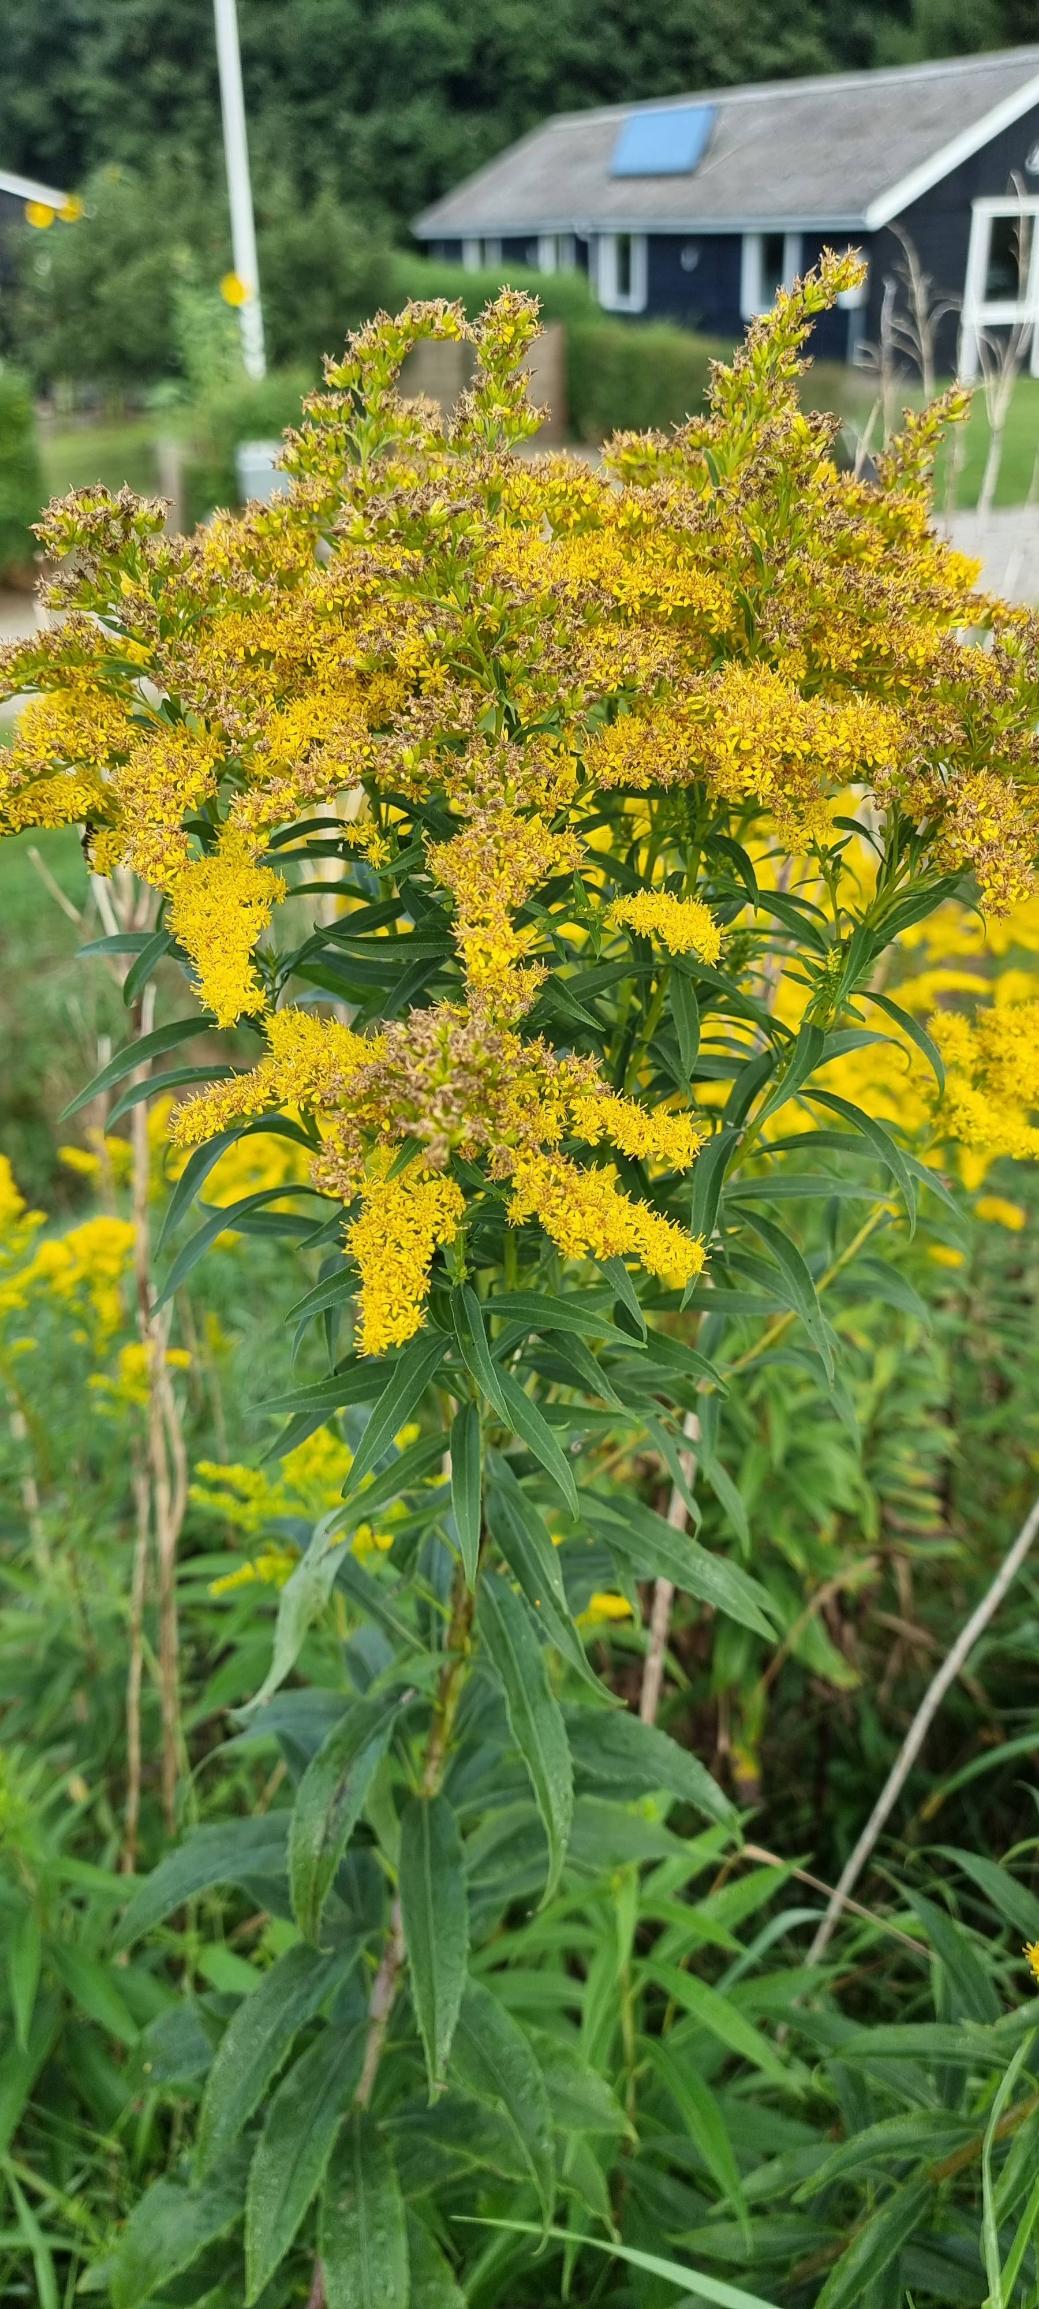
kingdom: Plantae
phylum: Tracheophyta
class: Magnoliopsida
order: Asterales
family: Asteraceae
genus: Solidago
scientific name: Solidago gigantea
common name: Sildig gyldenris
